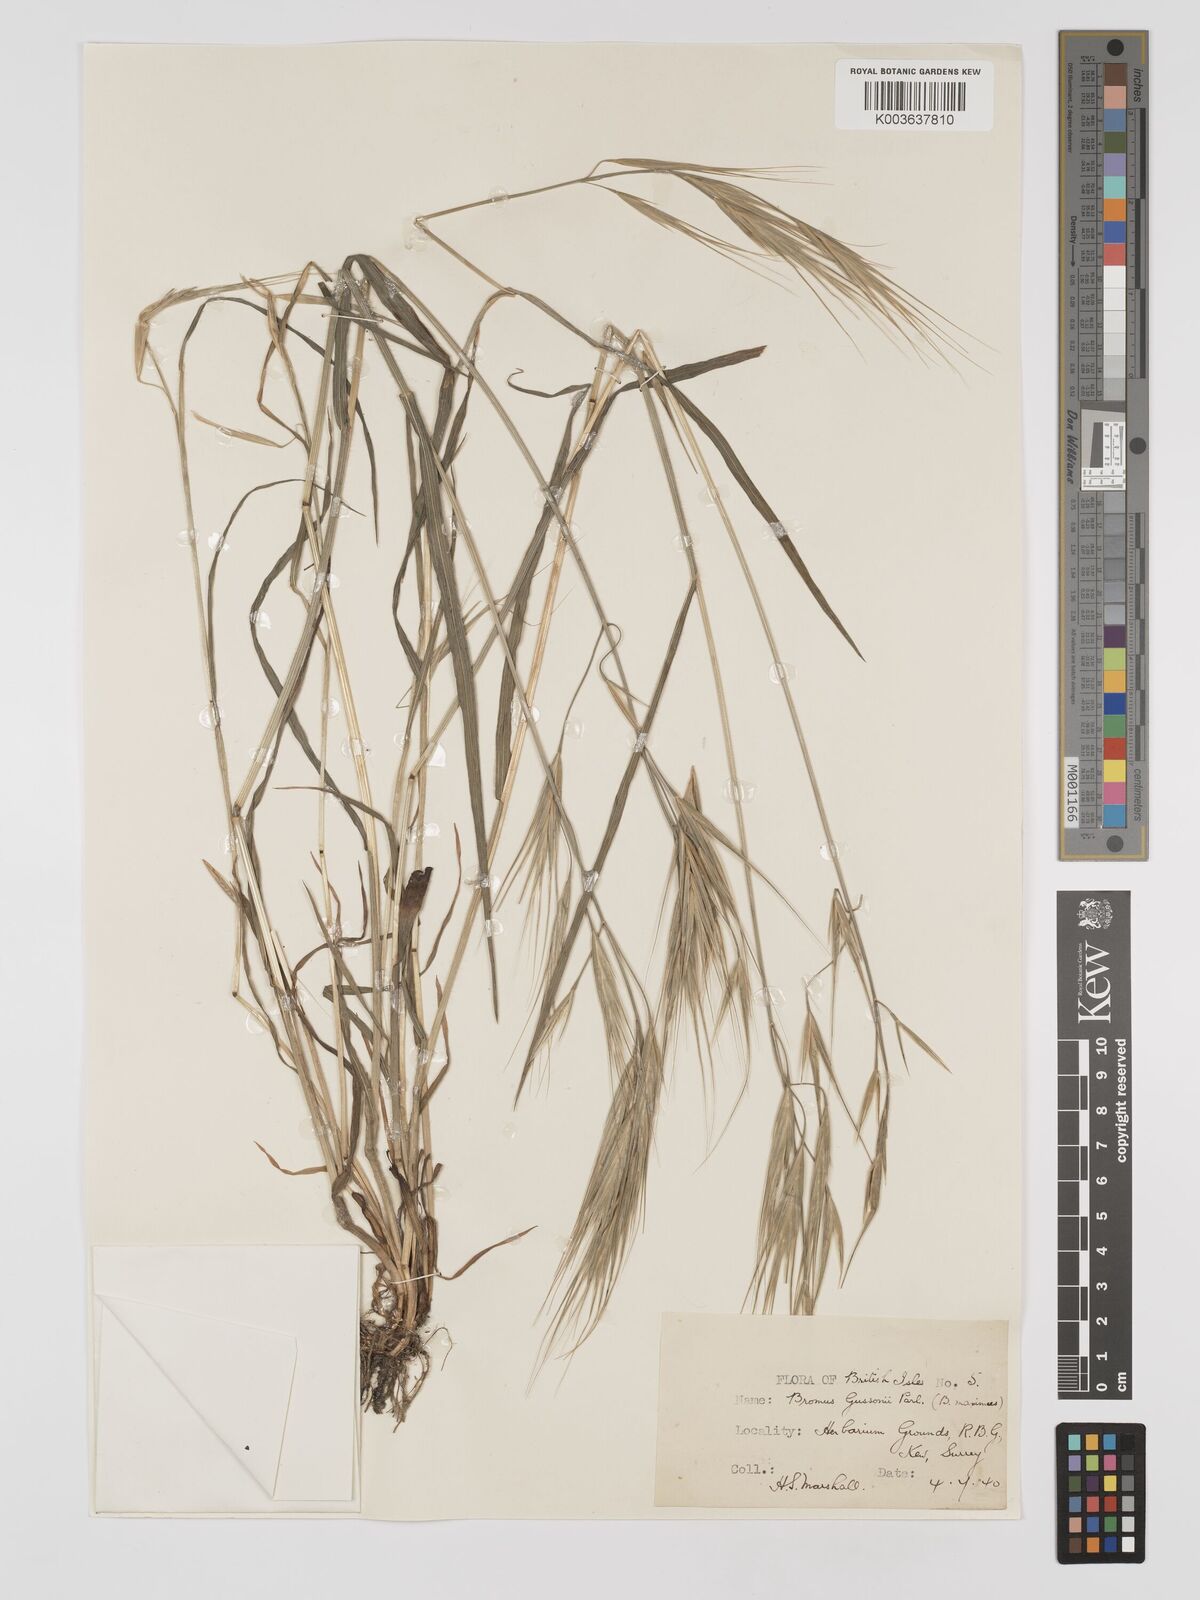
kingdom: Plantae
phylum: Tracheophyta
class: Liliopsida
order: Poales
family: Poaceae
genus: Bromus
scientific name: Bromus
